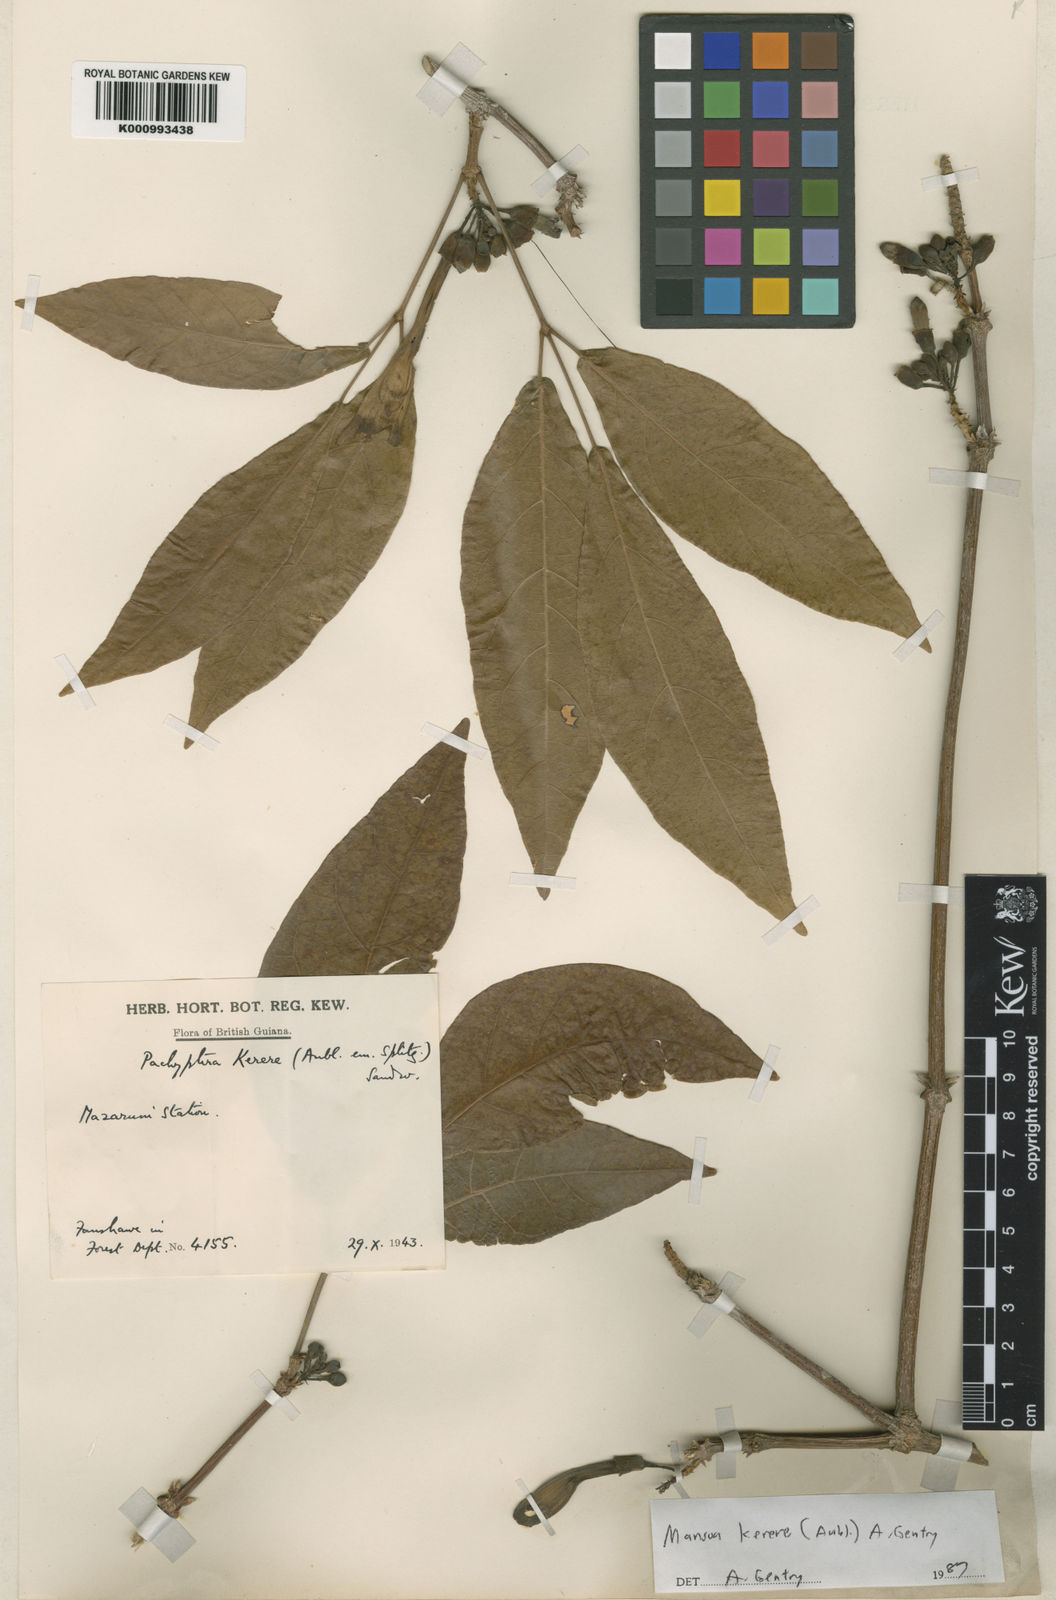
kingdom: Plantae
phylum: Tracheophyta
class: Magnoliopsida
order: Lamiales
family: Bignoniaceae
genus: Pachyptera
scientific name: Pachyptera kerere
